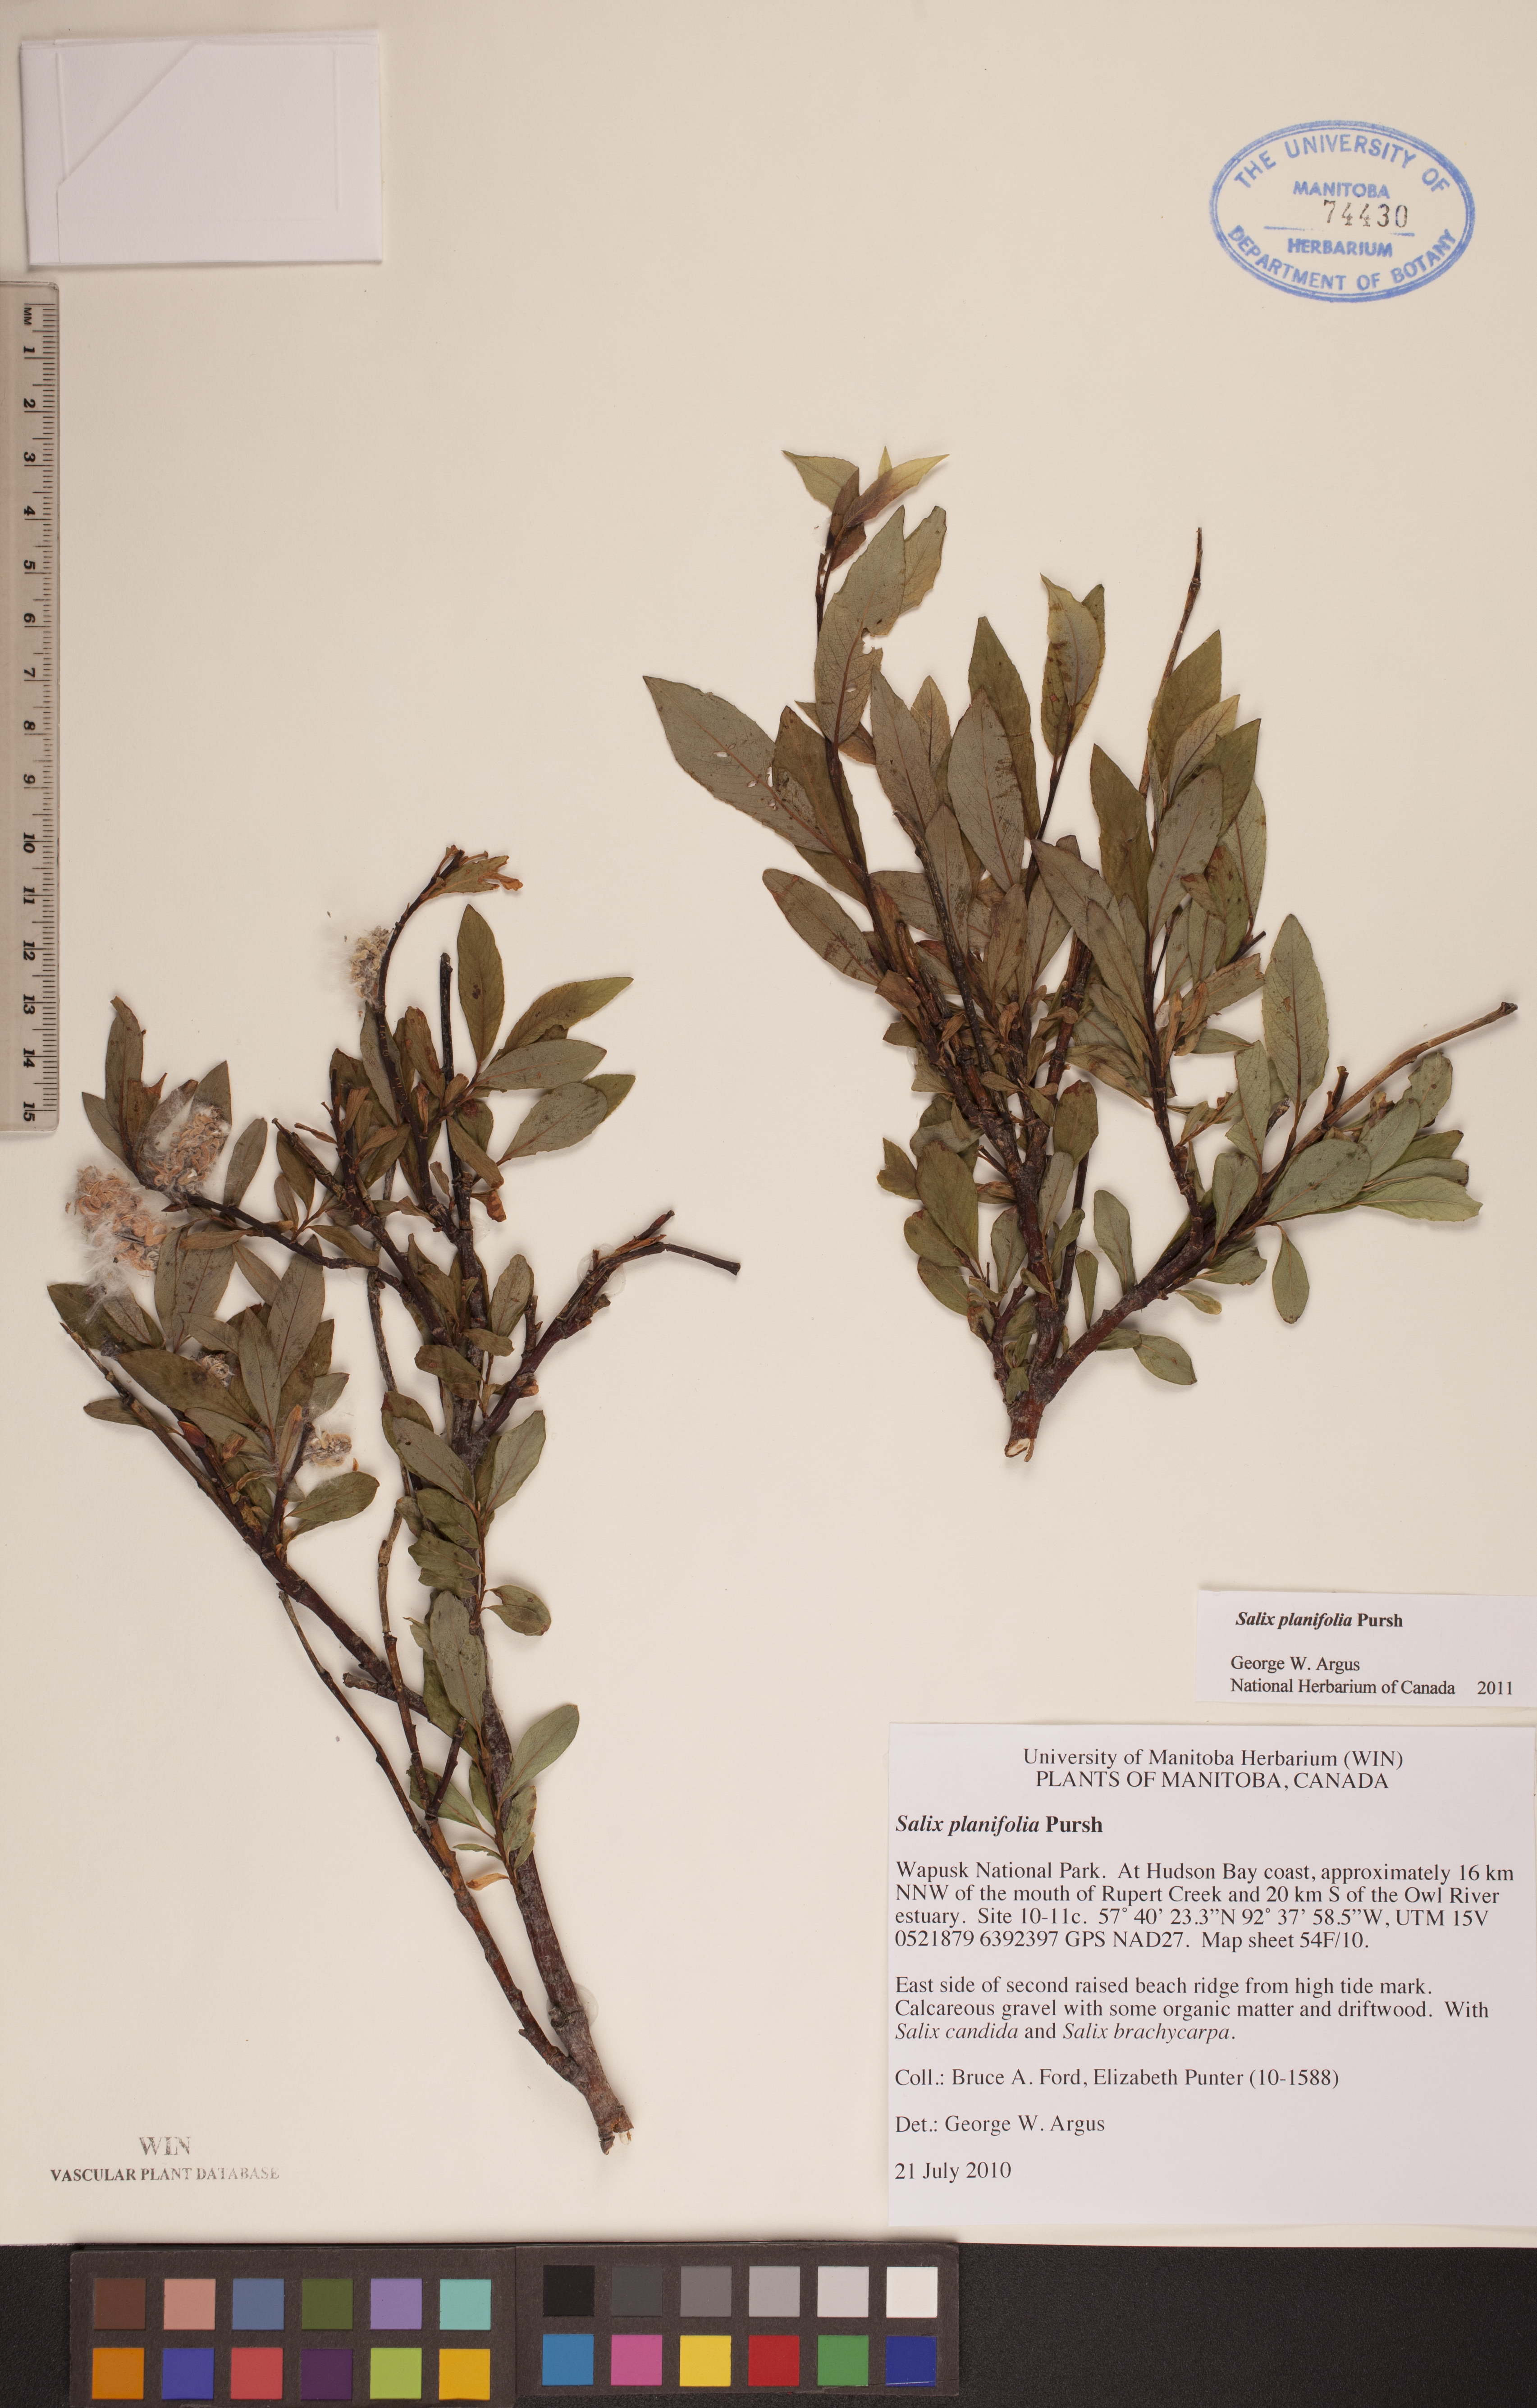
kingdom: Plantae
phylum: Tracheophyta
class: Magnoliopsida
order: Malpighiales
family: Salicaceae
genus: Salix
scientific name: Salix planifolia
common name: Mountain willow
